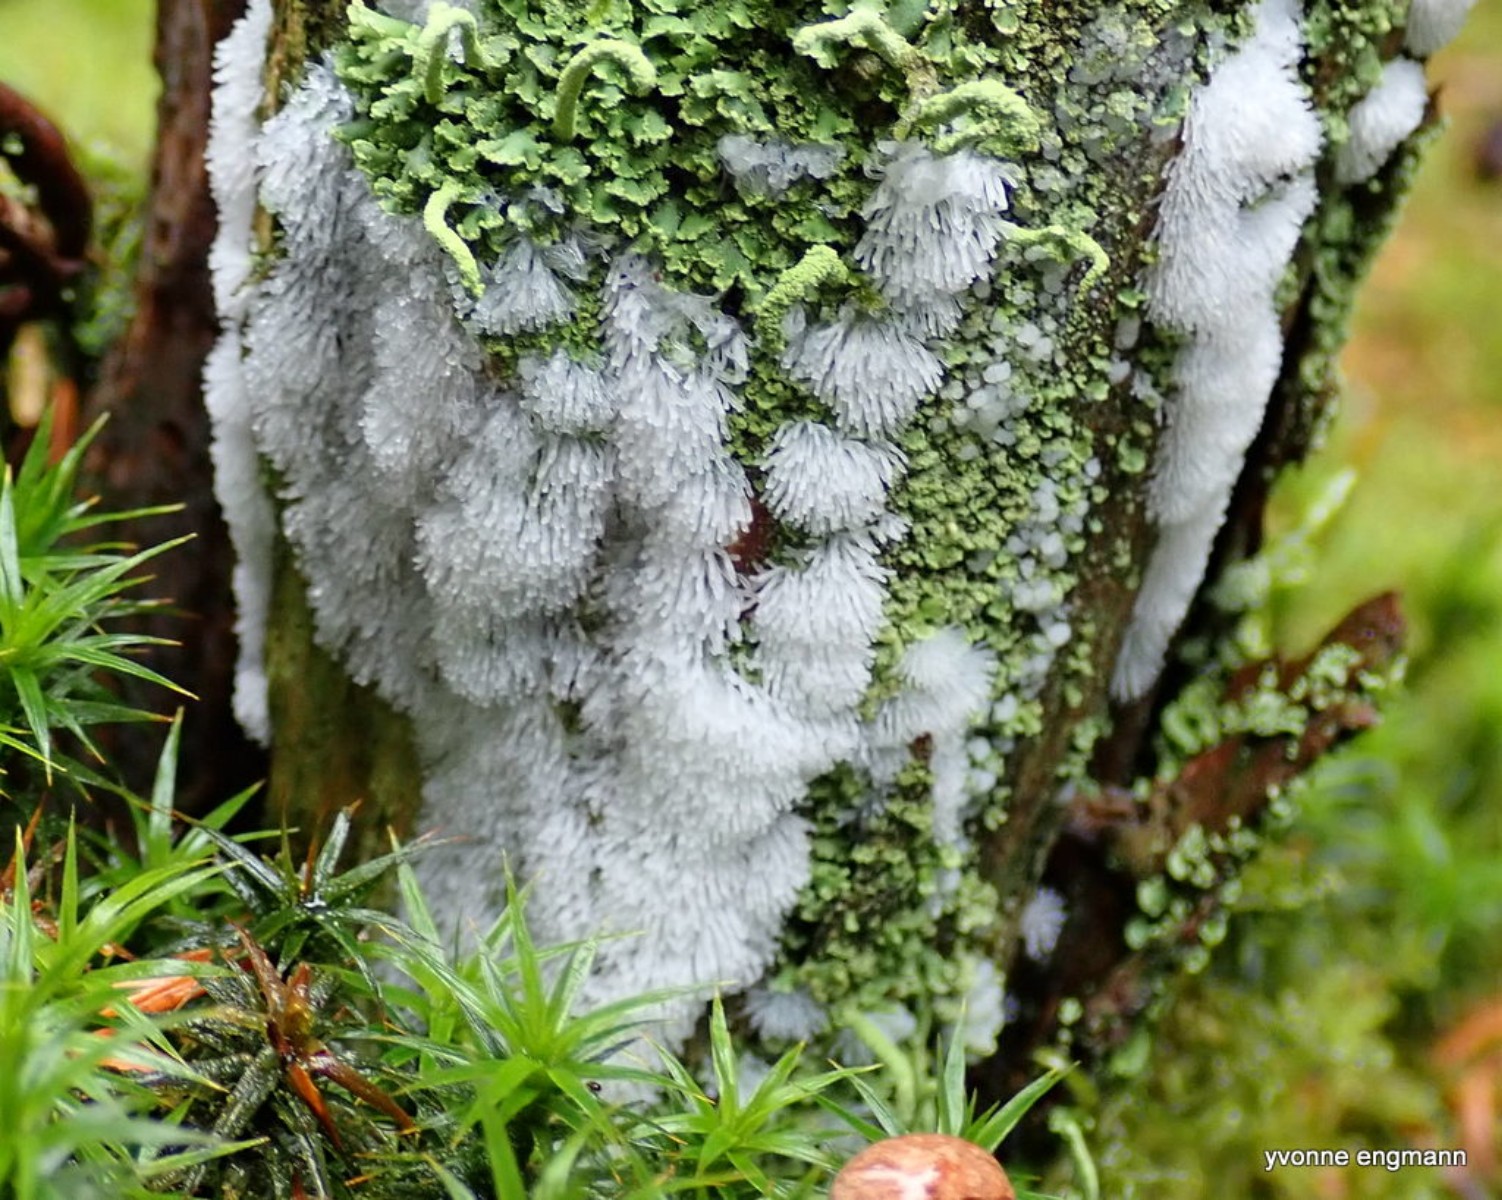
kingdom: Protozoa
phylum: Mycetozoa
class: Protosteliomycetes
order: Ceratiomyxales
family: Ceratiomyxaceae
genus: Ceratiomyxa
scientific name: Ceratiomyxa fruticulosa
